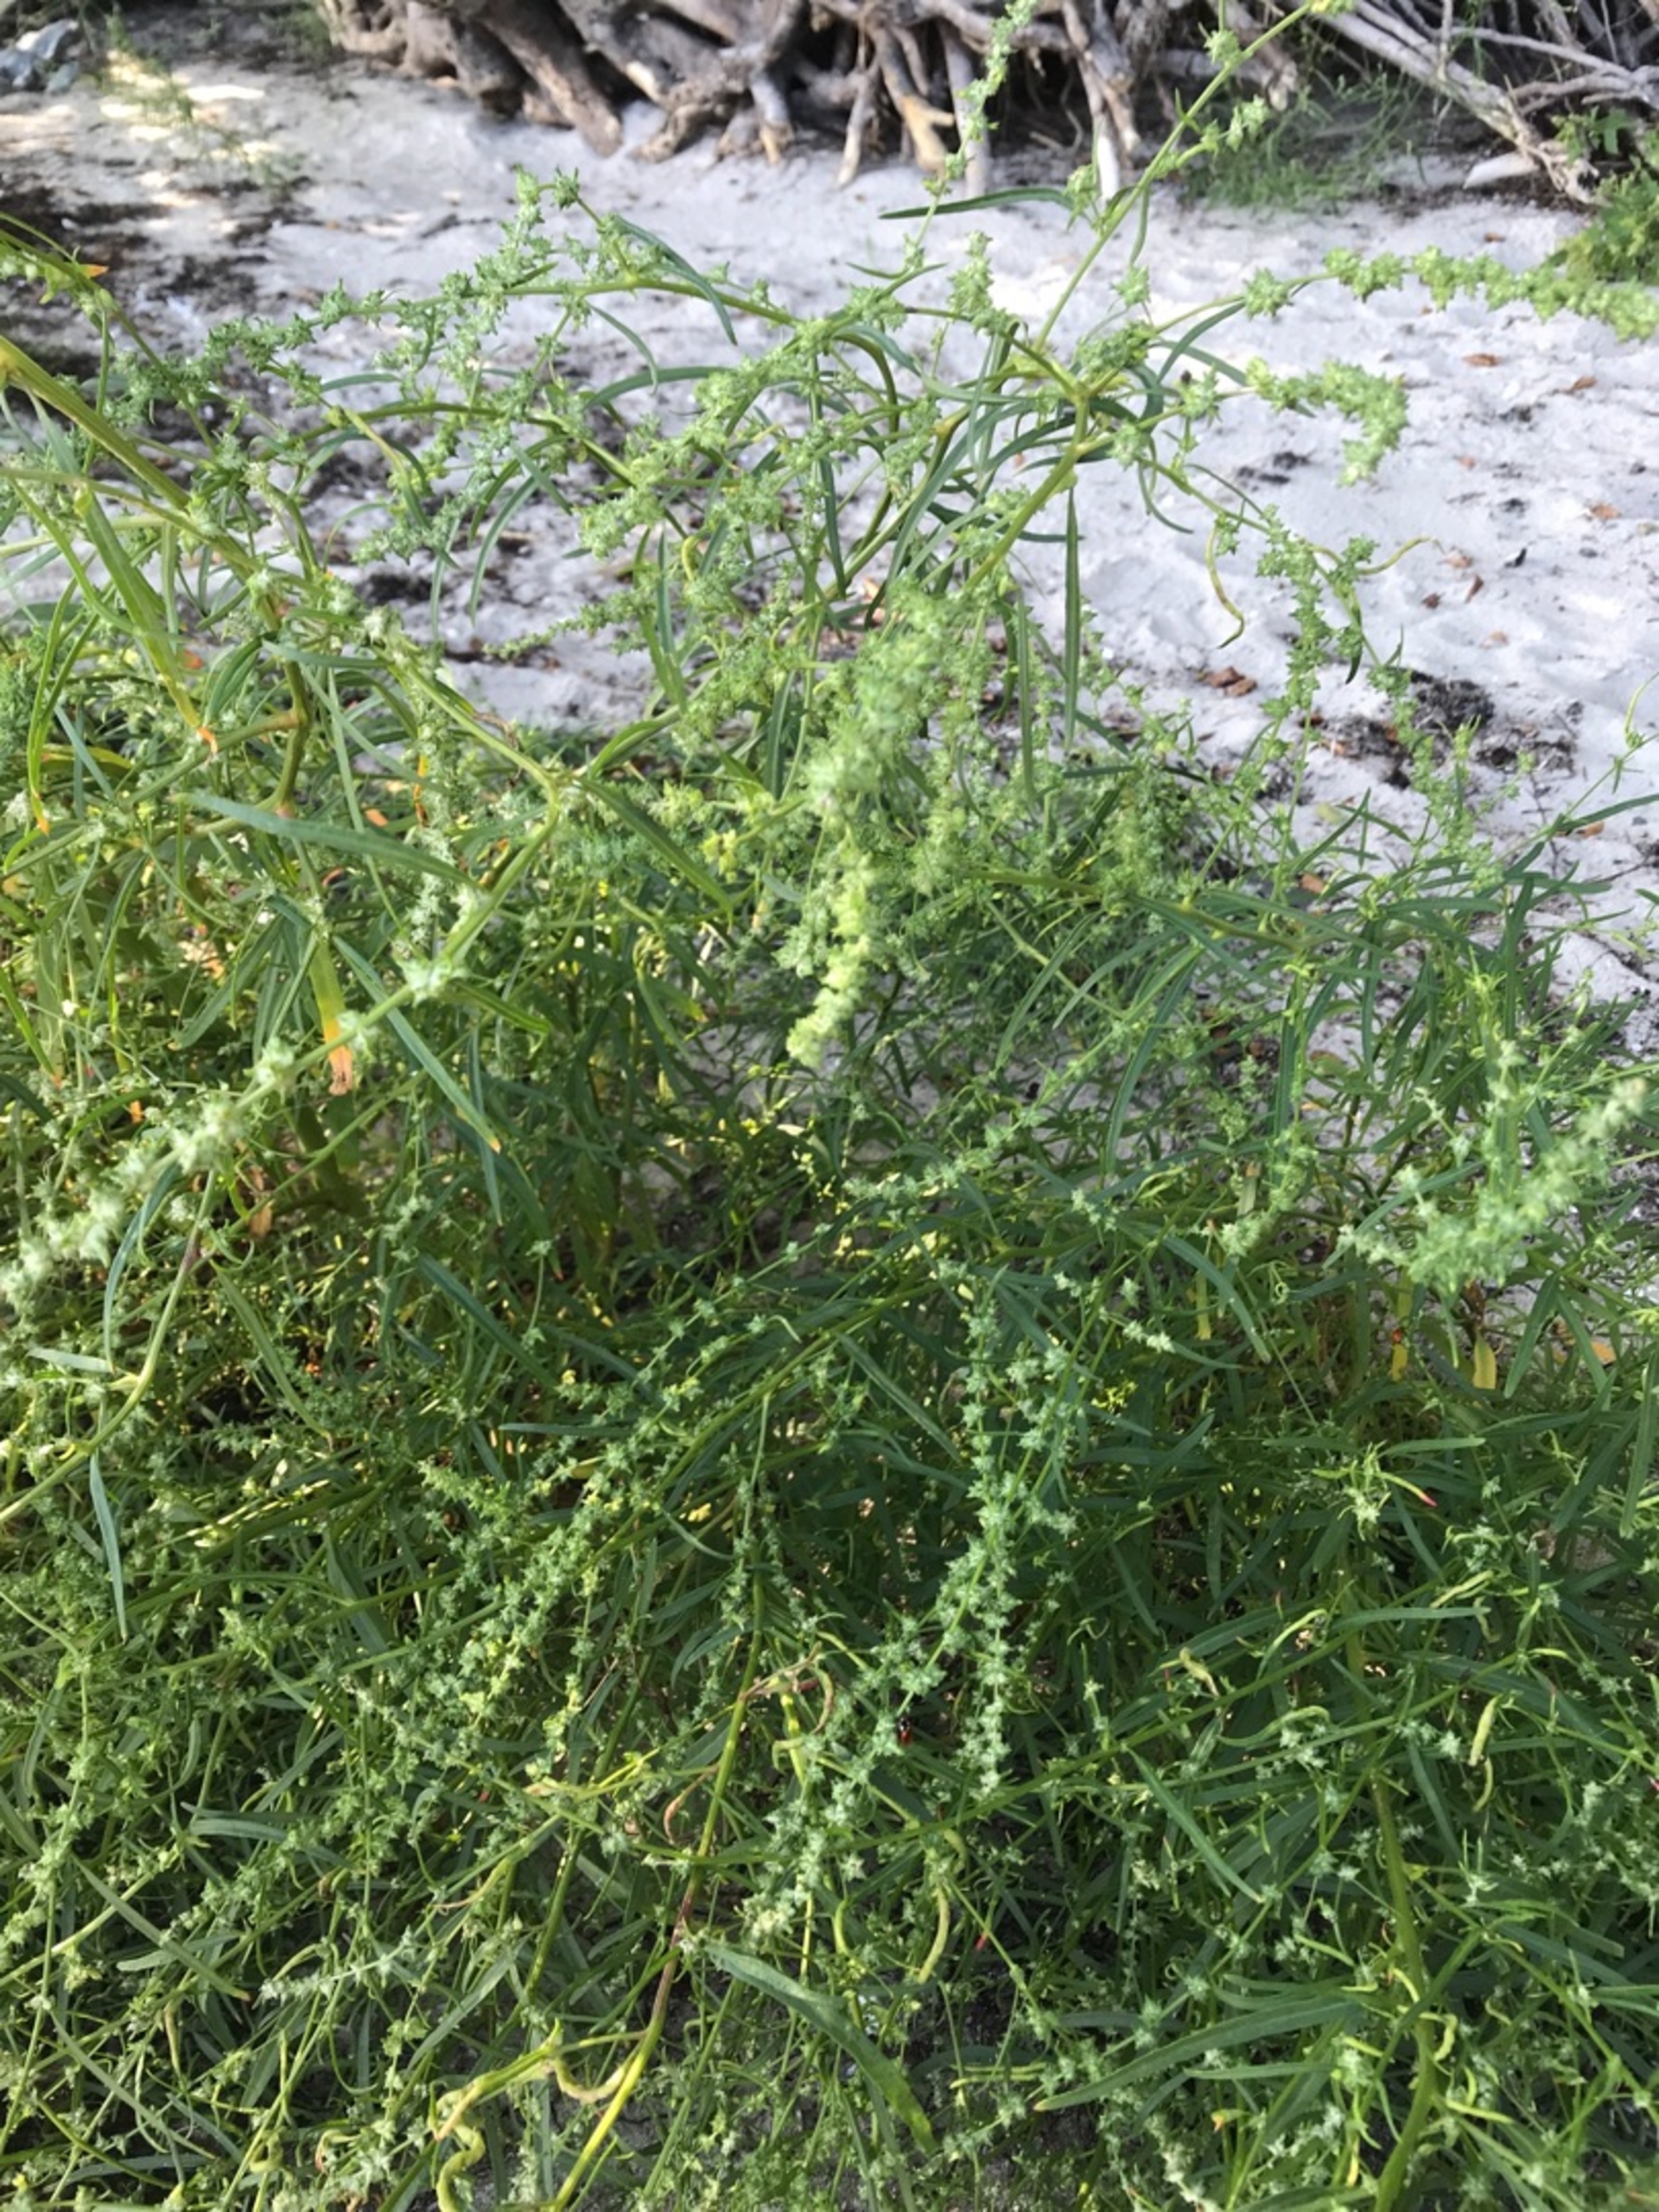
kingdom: Plantae
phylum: Tracheophyta
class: Magnoliopsida
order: Caryophyllales
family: Amaranthaceae
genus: Atriplex
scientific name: Atriplex littoralis
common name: Strand-mælde
